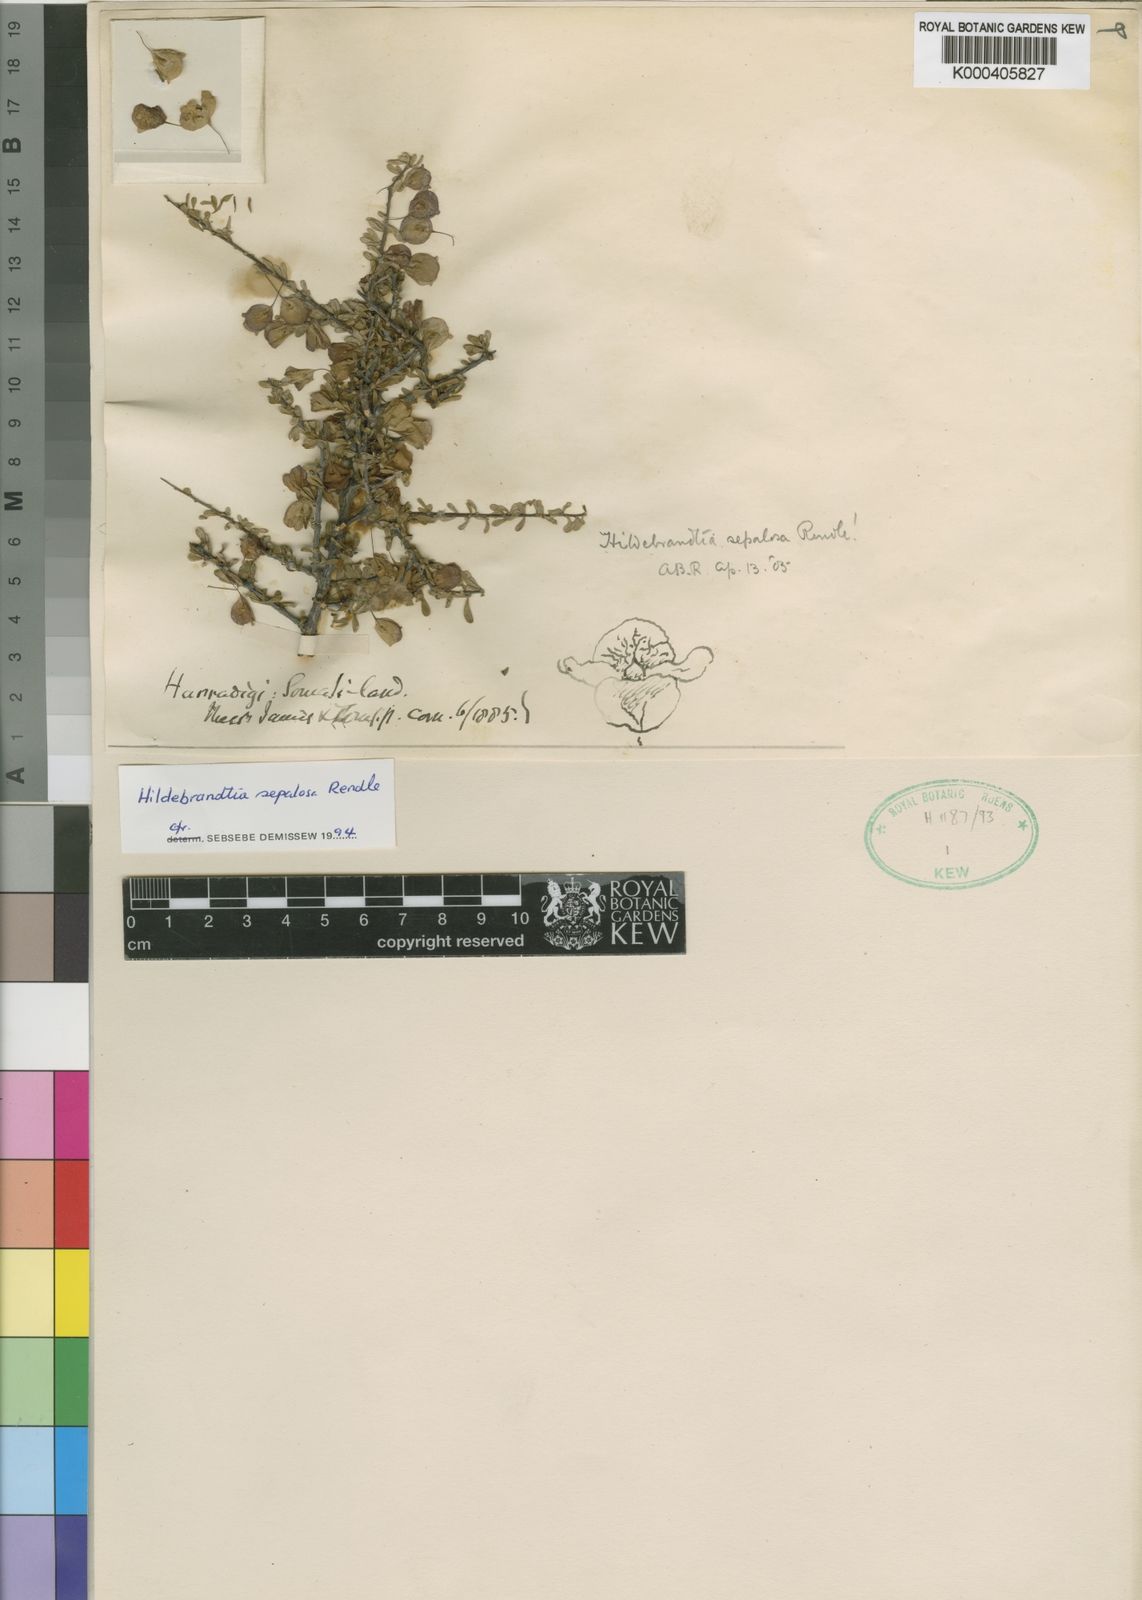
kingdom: Plantae
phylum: Tracheophyta
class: Magnoliopsida
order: Solanales
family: Convolvulaceae
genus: Hildebrandtia
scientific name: Hildebrandtia sepalosa
